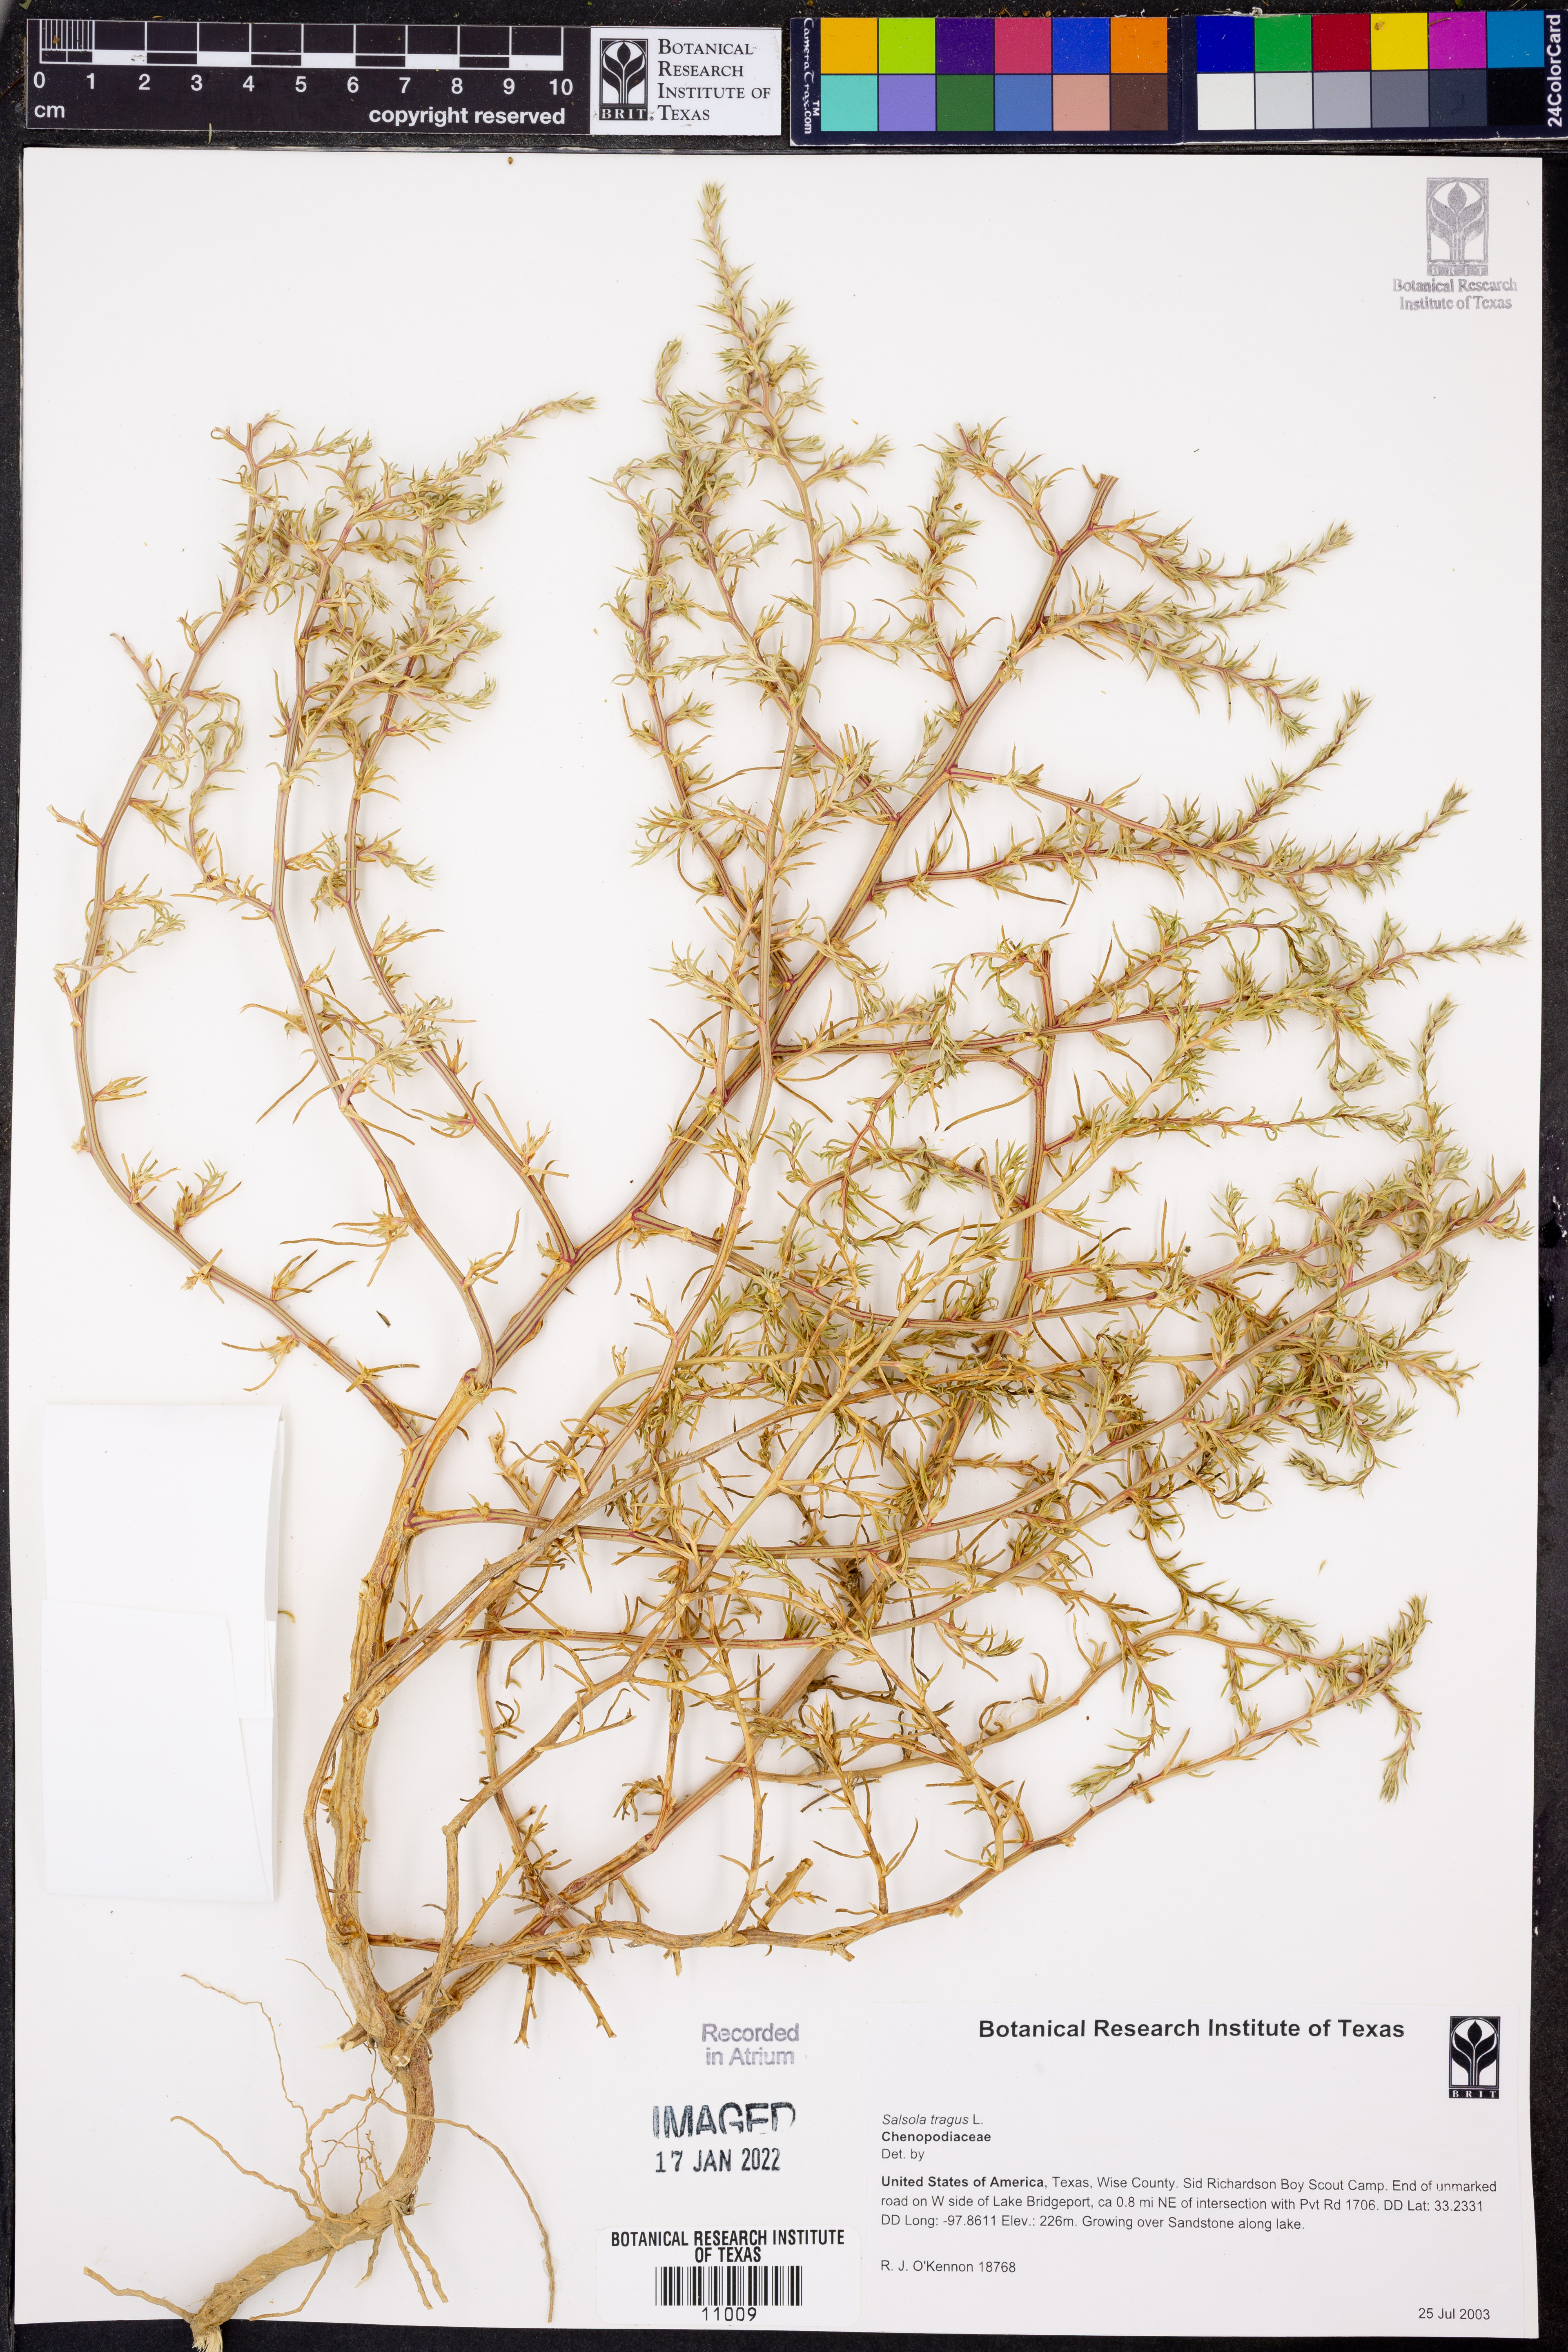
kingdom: Plantae
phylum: Tracheophyta
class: Magnoliopsida
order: Caryophyllales
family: Amaranthaceae
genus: Salsola
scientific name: Salsola tragus
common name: Prickly russian thistle
